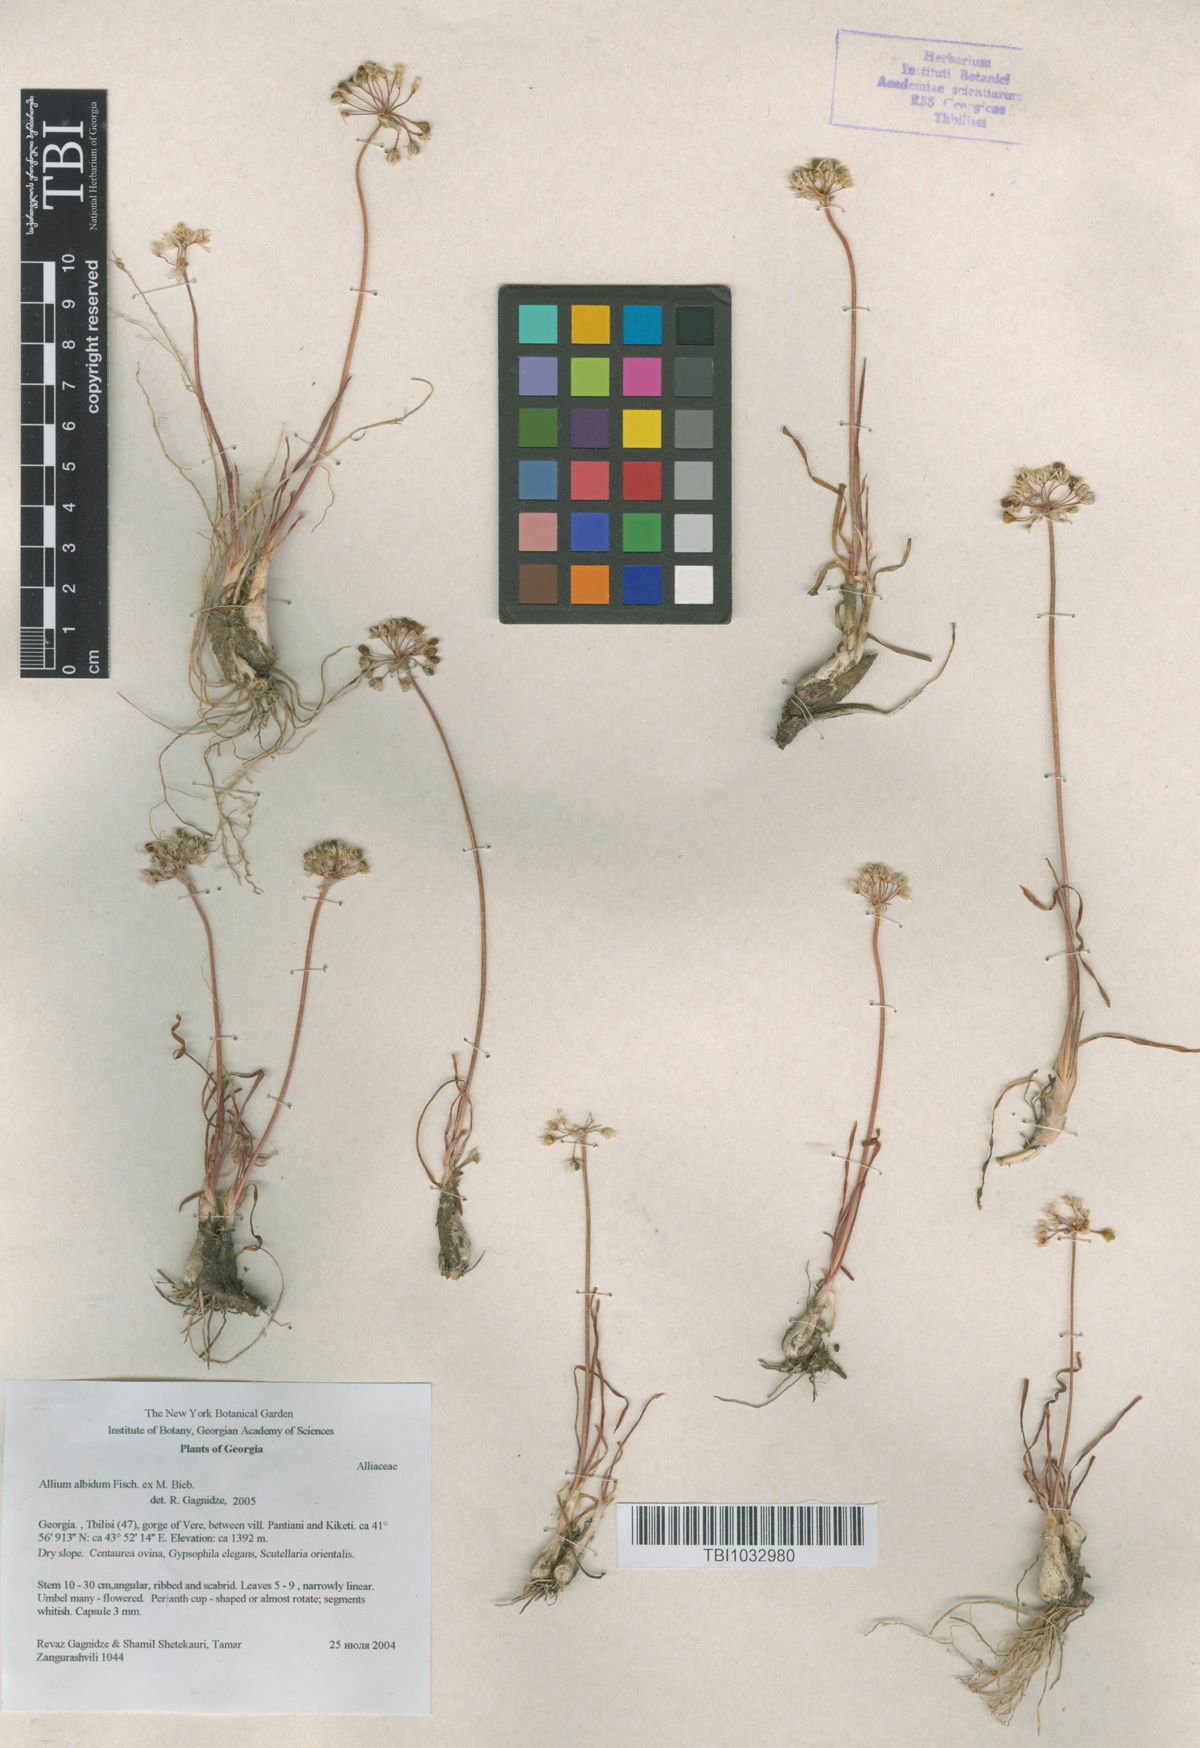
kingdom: Plantae
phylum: Tracheophyta
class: Liliopsida
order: Asparagales
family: Amaryllidaceae
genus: Allium
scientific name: Allium denudatum
